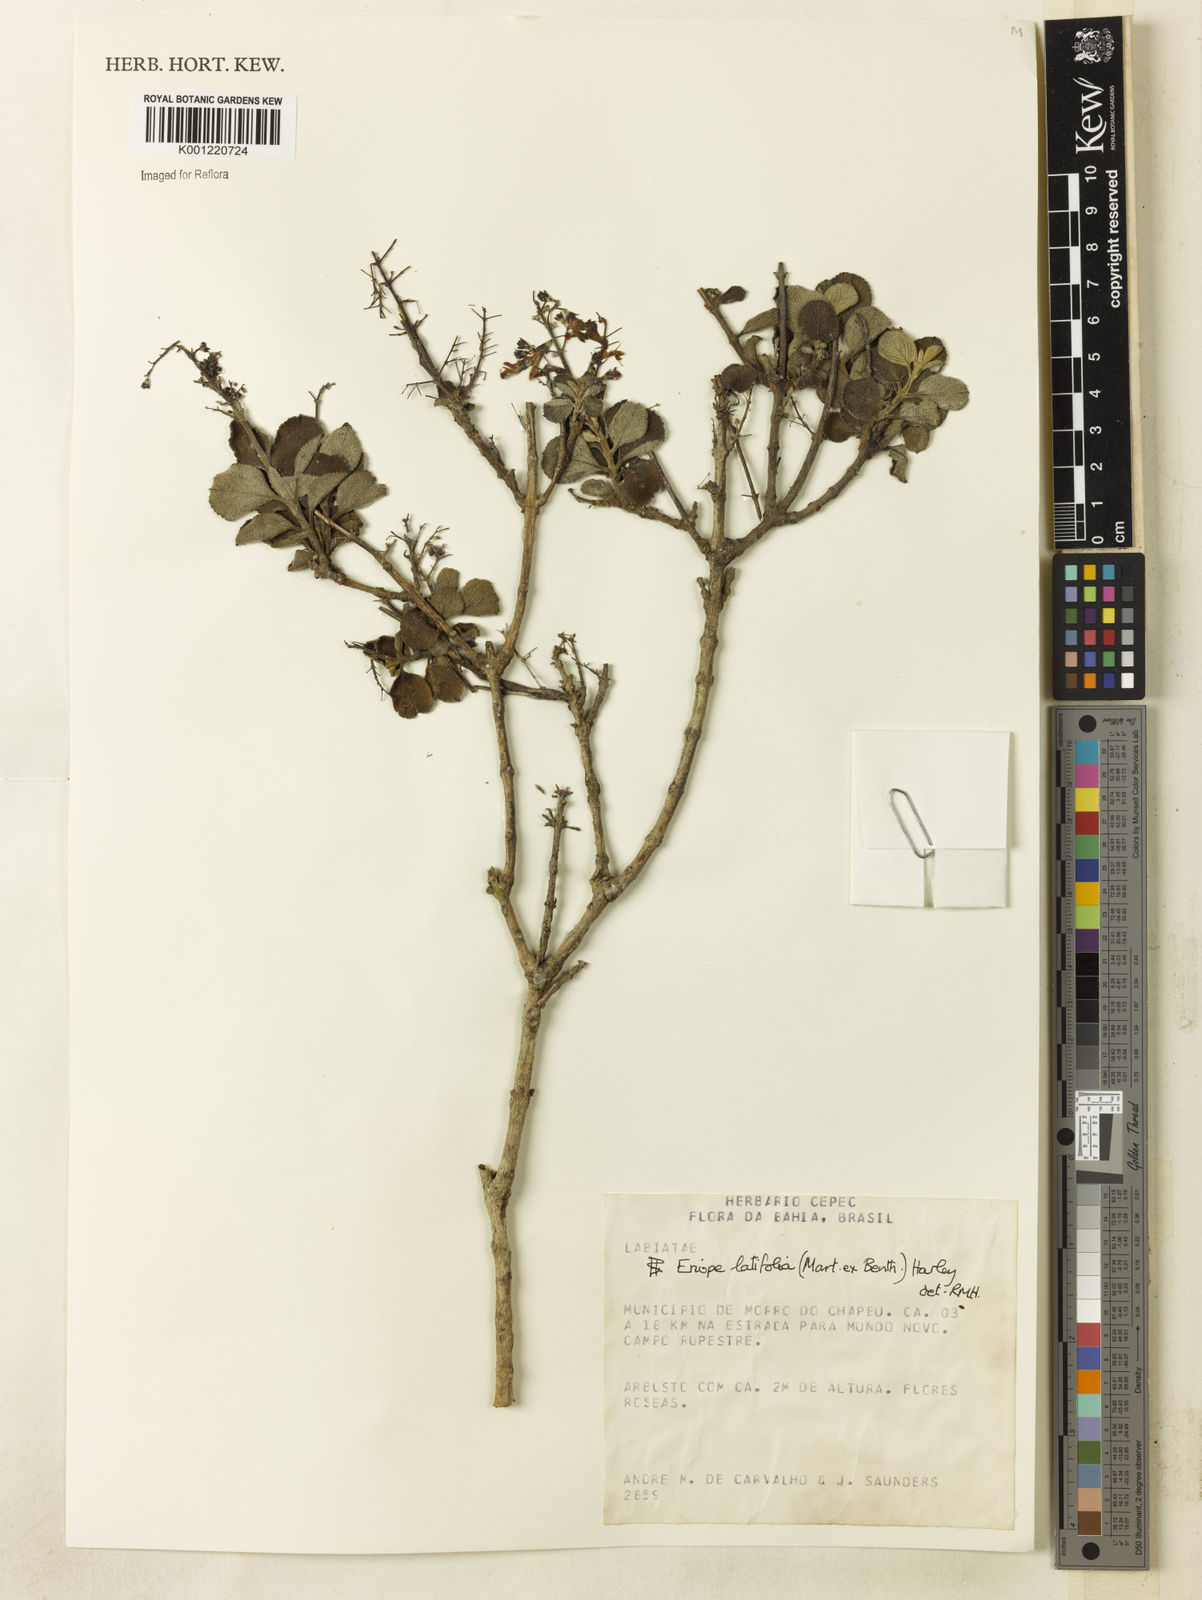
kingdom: Plantae
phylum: Tracheophyta
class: Magnoliopsida
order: Lamiales
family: Lamiaceae
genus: Eriope
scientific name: Eriope latifolia
